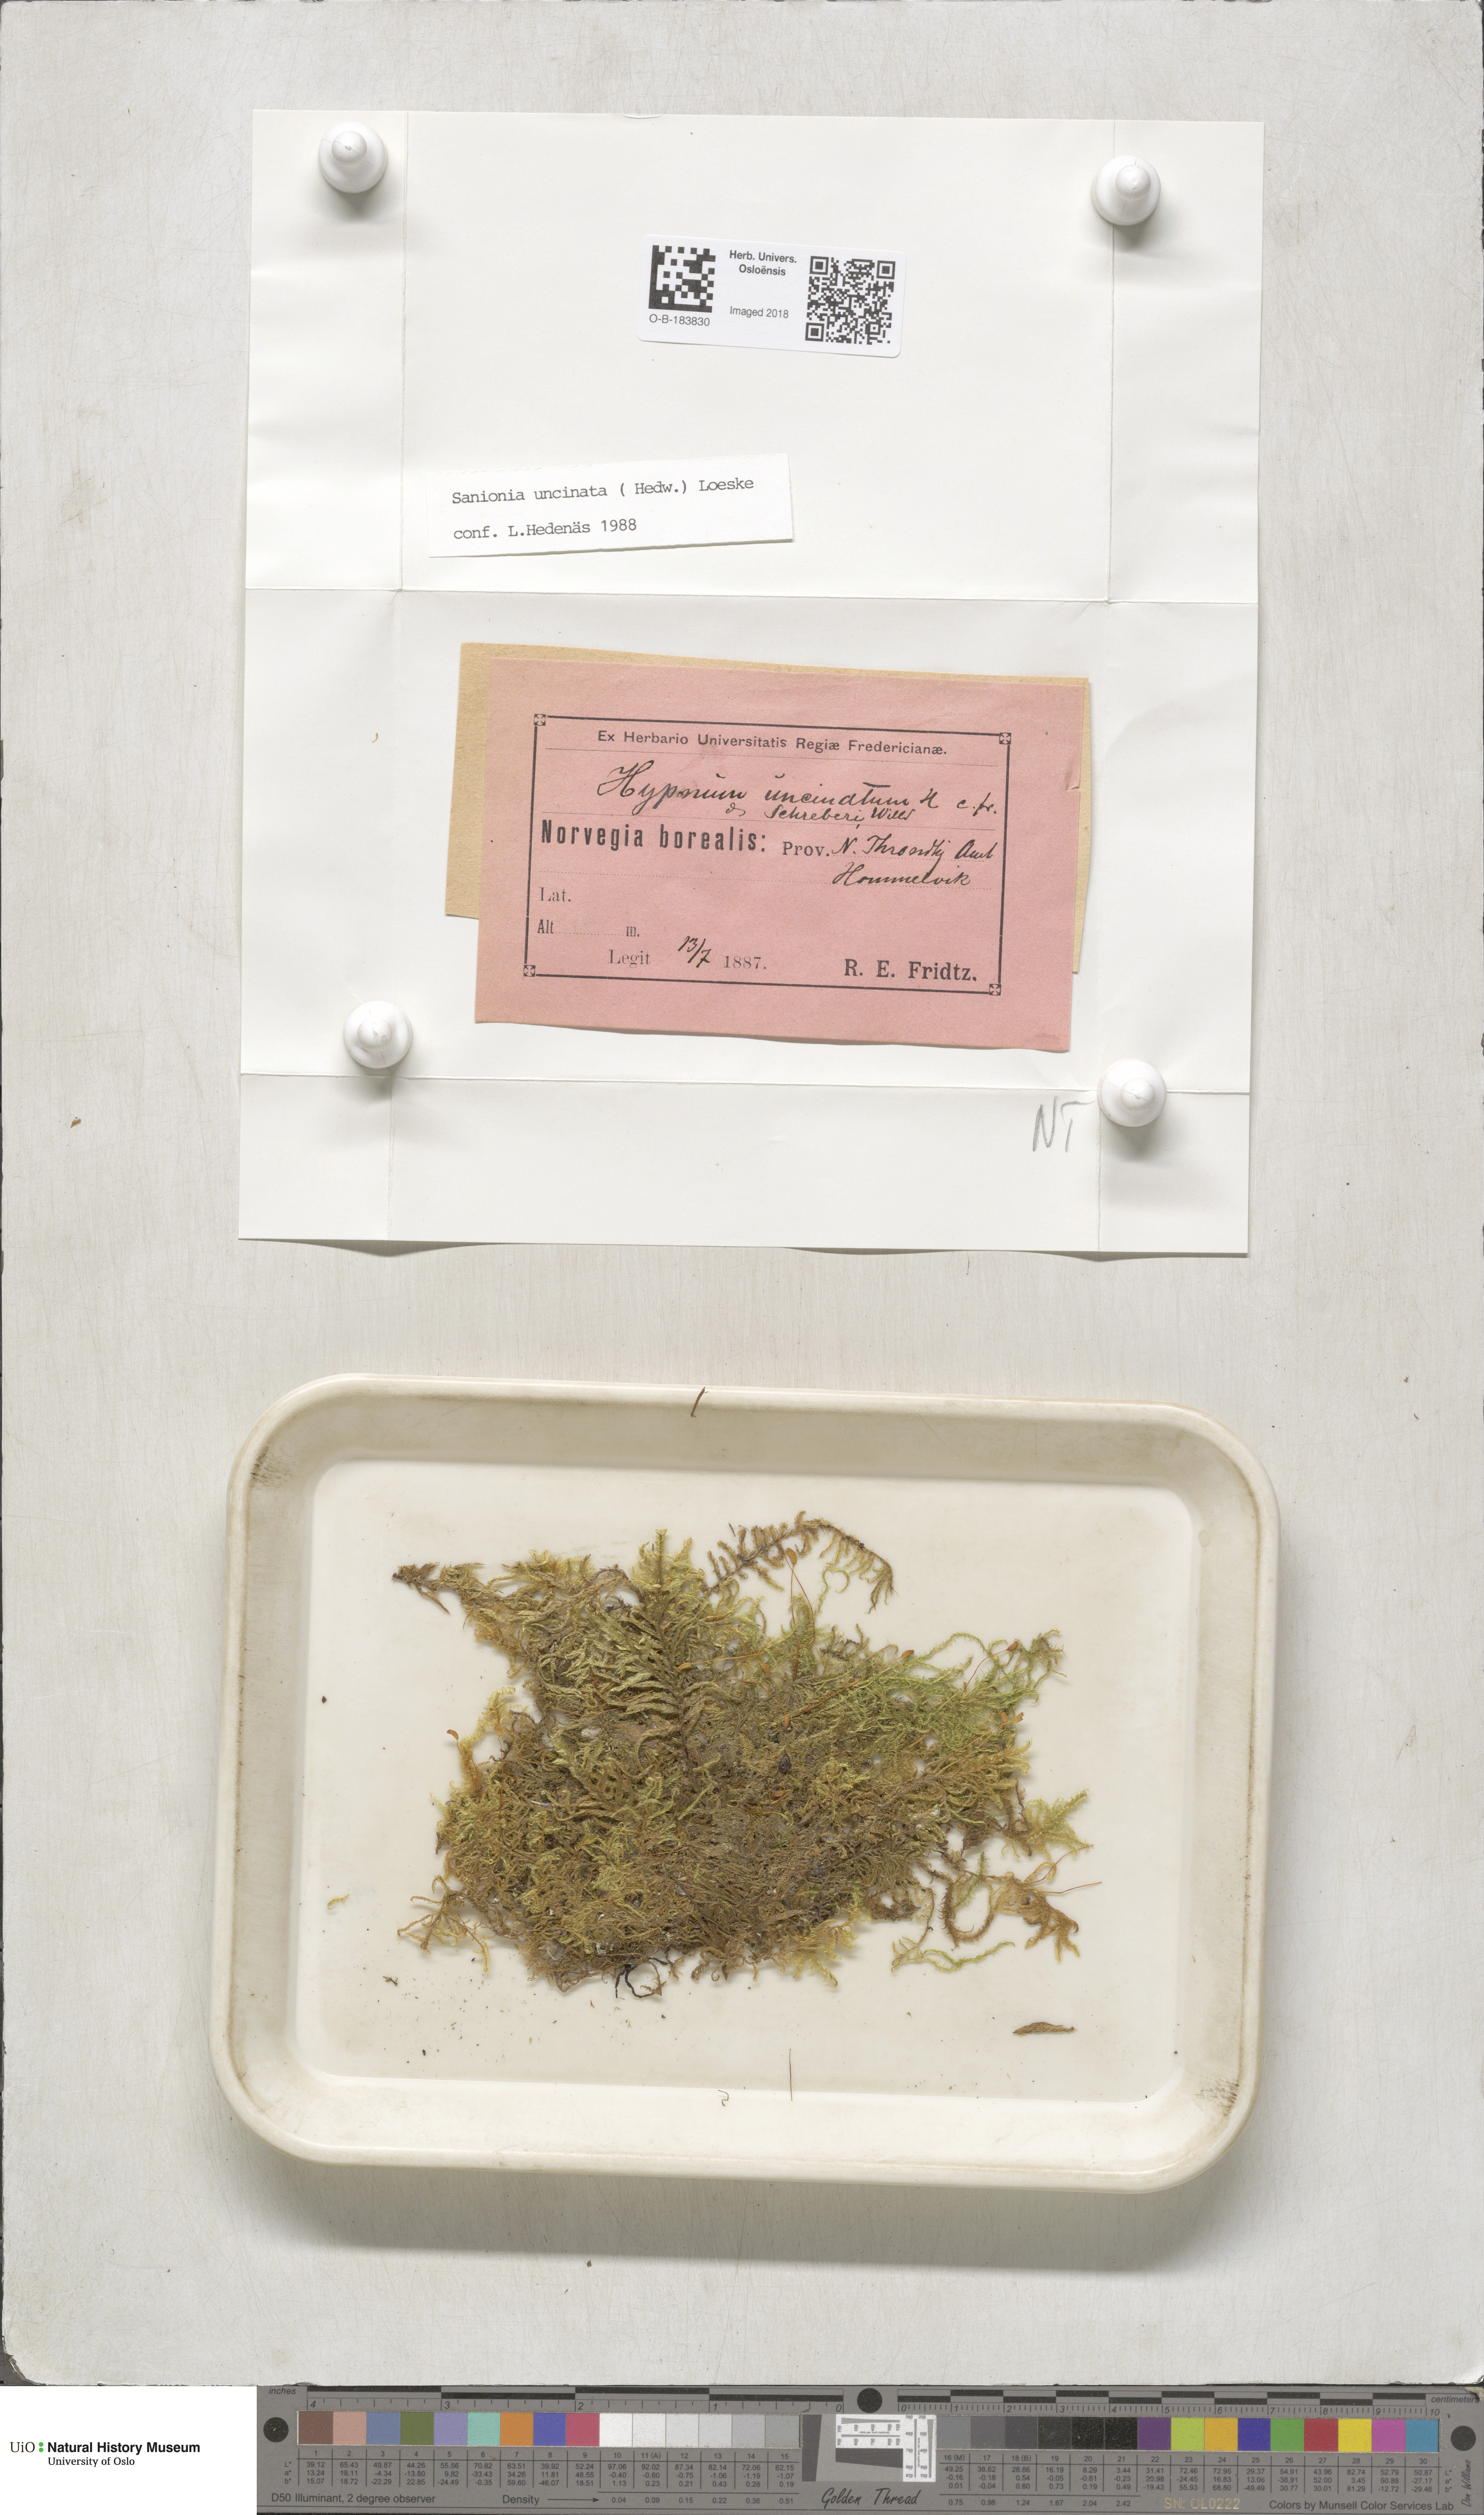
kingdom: Plantae
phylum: Bryophyta
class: Bryopsida
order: Hypnales
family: Scorpidiaceae
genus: Sanionia
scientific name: Sanionia uncinata
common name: Sickle moss
